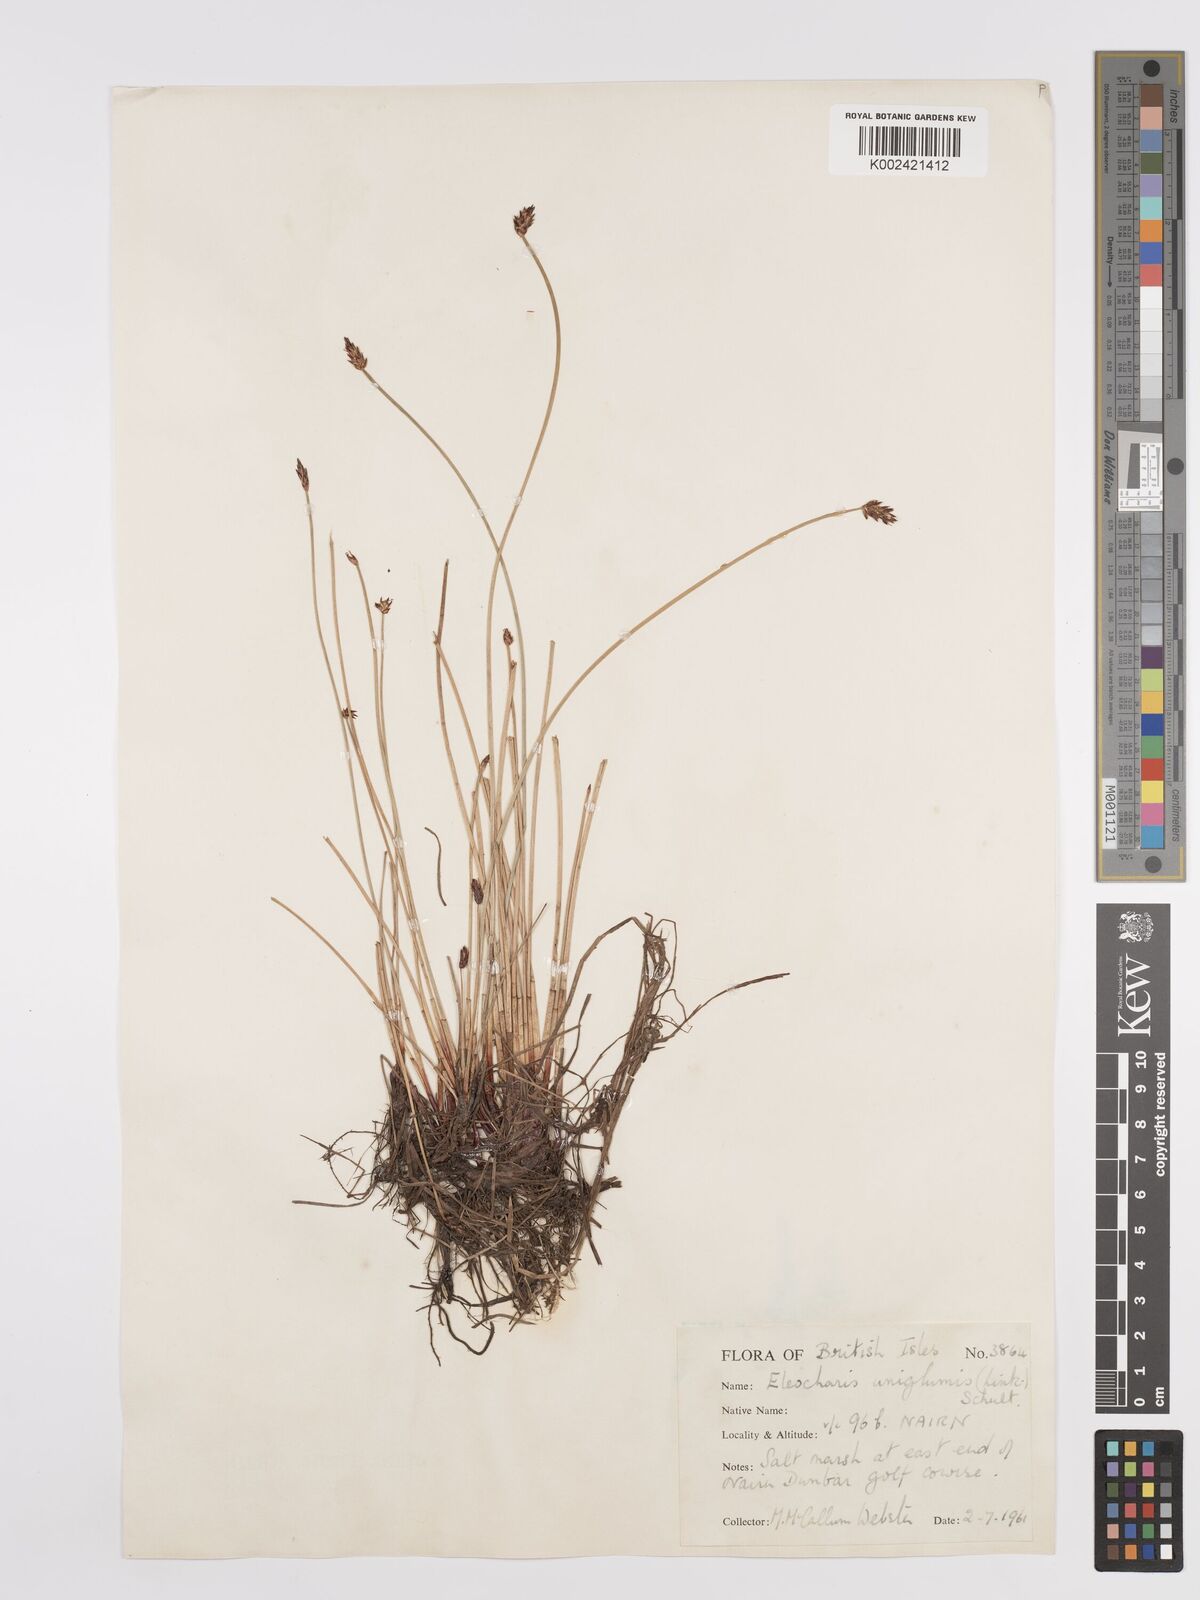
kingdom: Plantae
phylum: Tracheophyta
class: Liliopsida
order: Poales
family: Cyperaceae
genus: Eleocharis
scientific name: Eleocharis uniglumis
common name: Slender spike-rush
